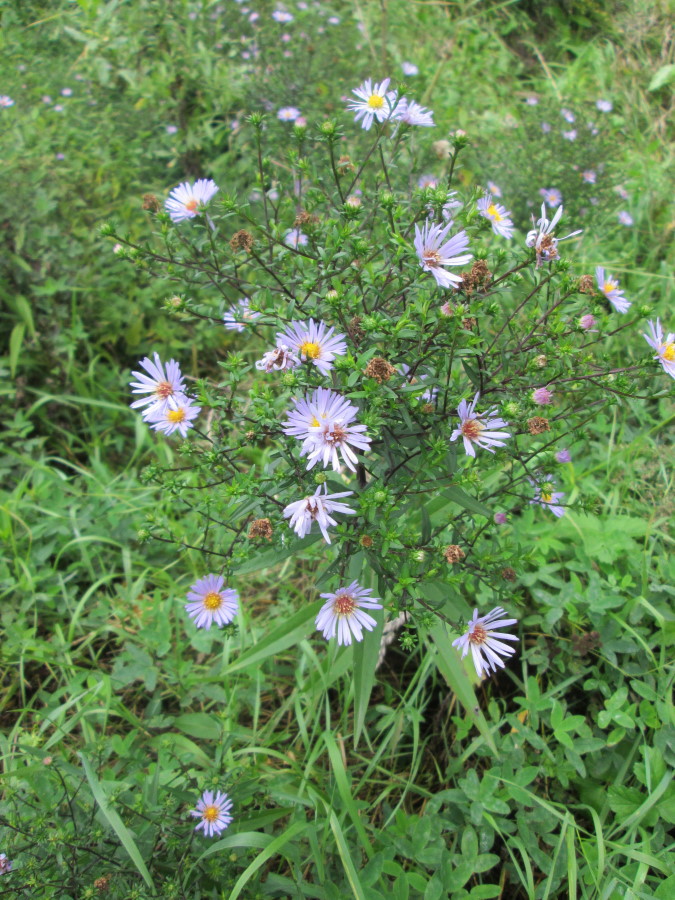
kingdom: Plantae
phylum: Tracheophyta
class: Magnoliopsida
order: Asterales
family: Asteraceae
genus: Symphyotrichum
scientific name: Symphyotrichum salignum
